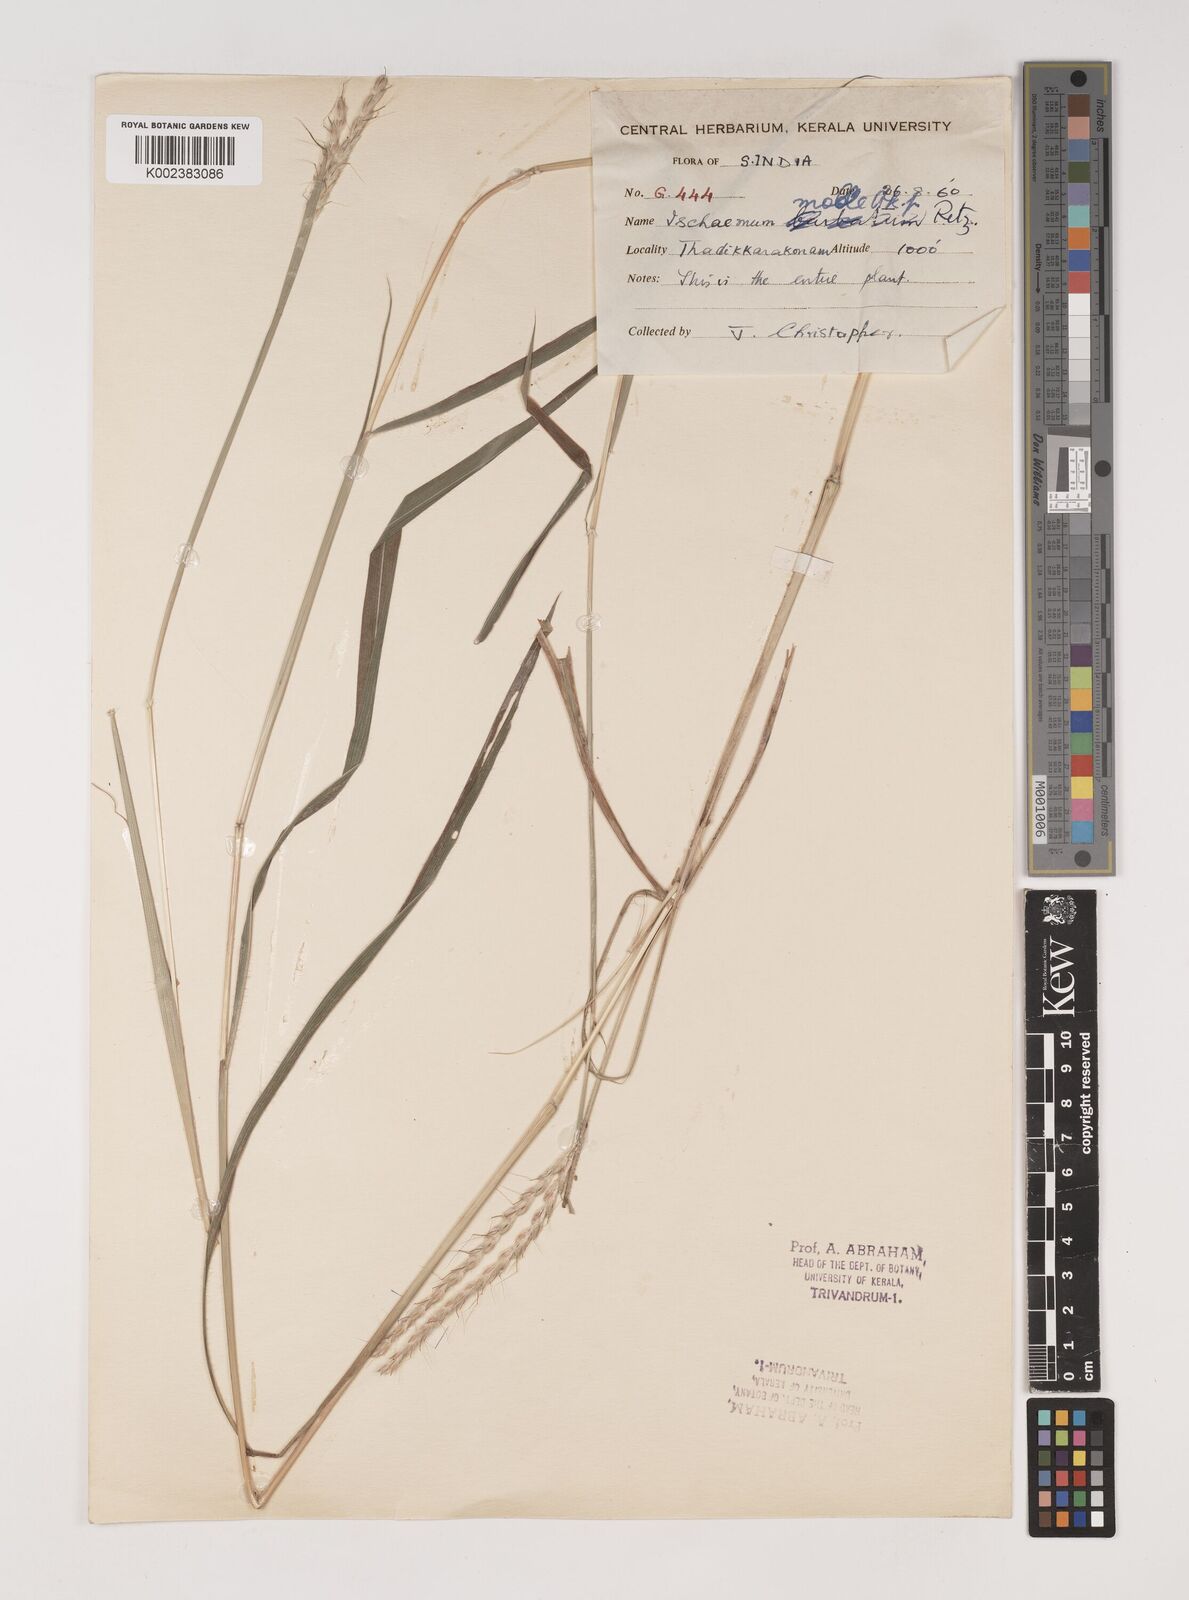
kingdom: Plantae
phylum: Tracheophyta
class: Liliopsida
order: Poales
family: Poaceae
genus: Ischaemum
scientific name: Ischaemum molle
